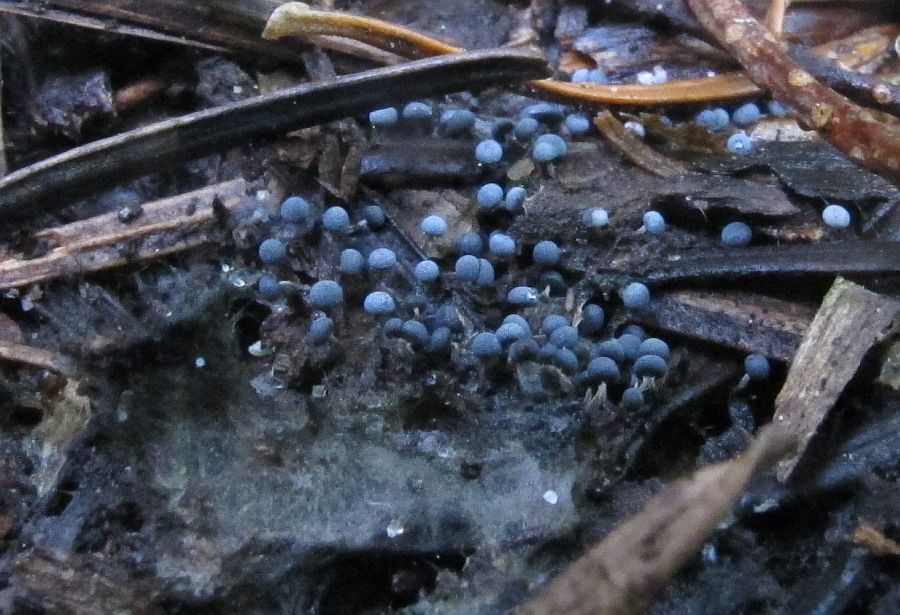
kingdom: Protozoa
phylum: Mycetozoa
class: Myxomycetes
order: Physarales
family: Physaraceae
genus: Physarum
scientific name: Physarum album
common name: nikkende støvknop
